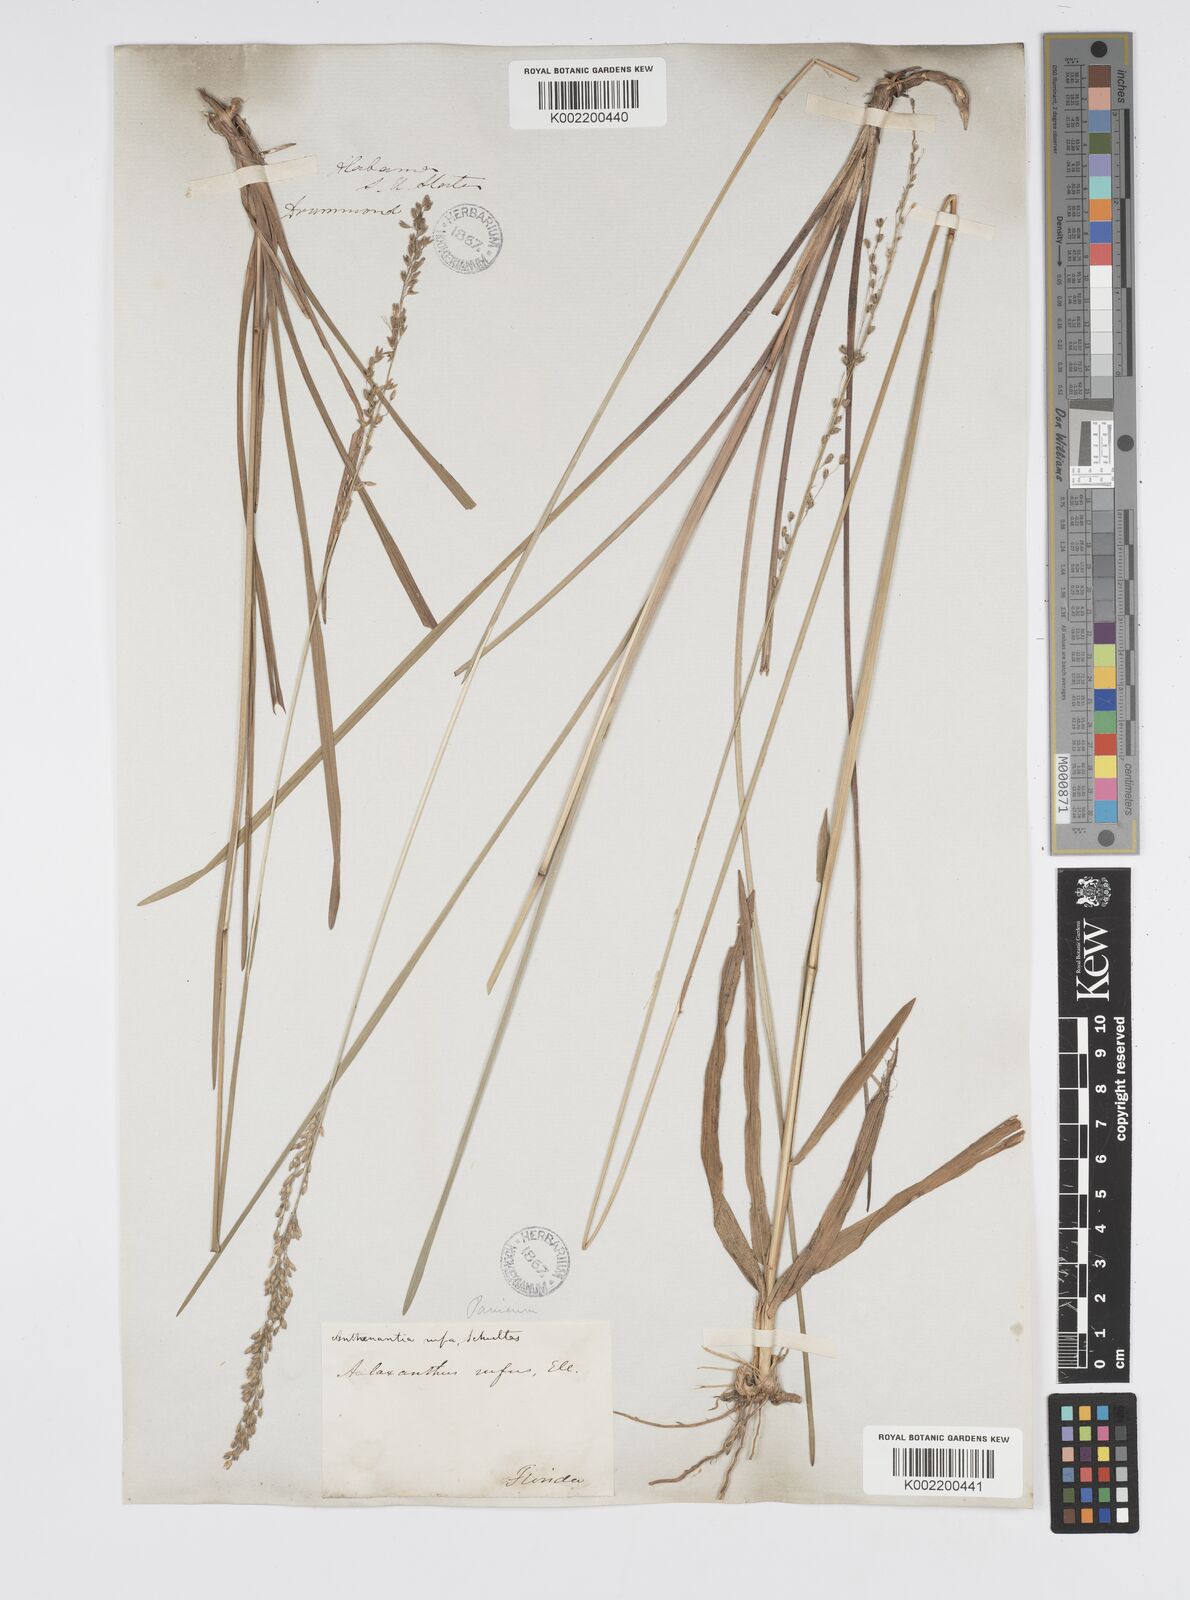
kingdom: Plantae
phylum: Tracheophyta
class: Liliopsida
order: Poales
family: Poaceae
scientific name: Poaceae
